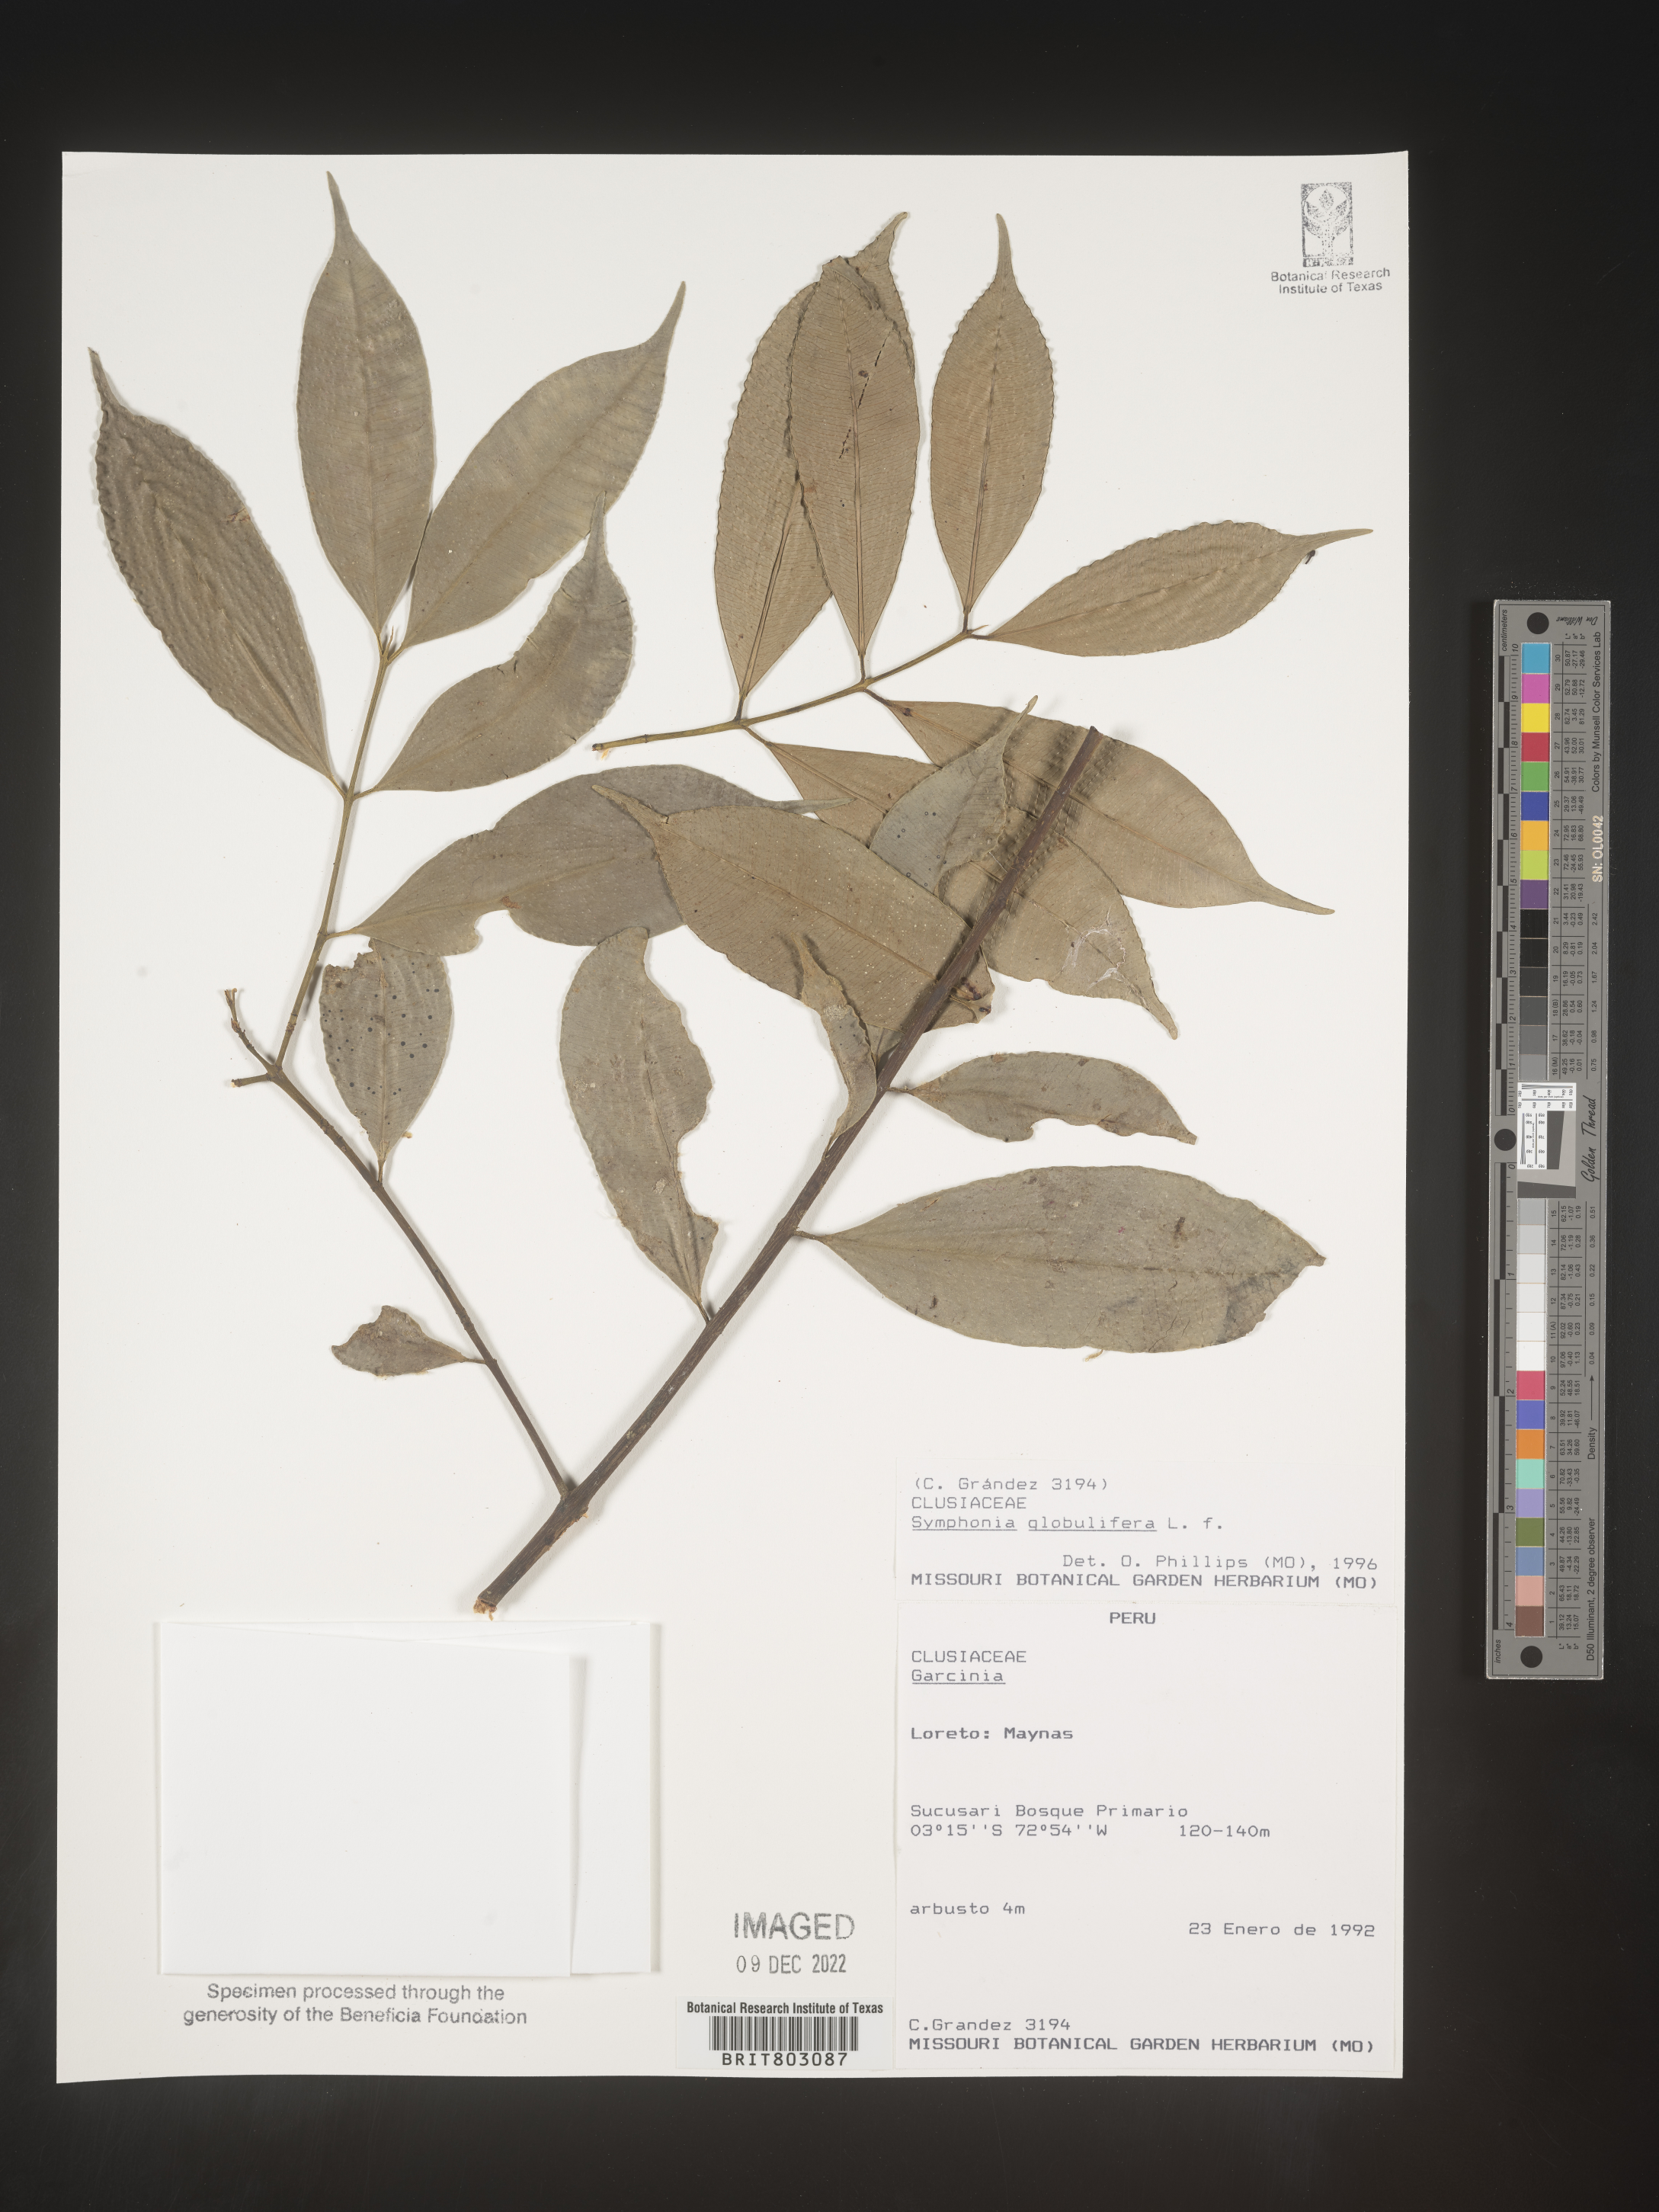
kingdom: Plantae
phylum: Tracheophyta
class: Magnoliopsida
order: Malpighiales
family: Clusiaceae
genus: Symphonia
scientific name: Symphonia
